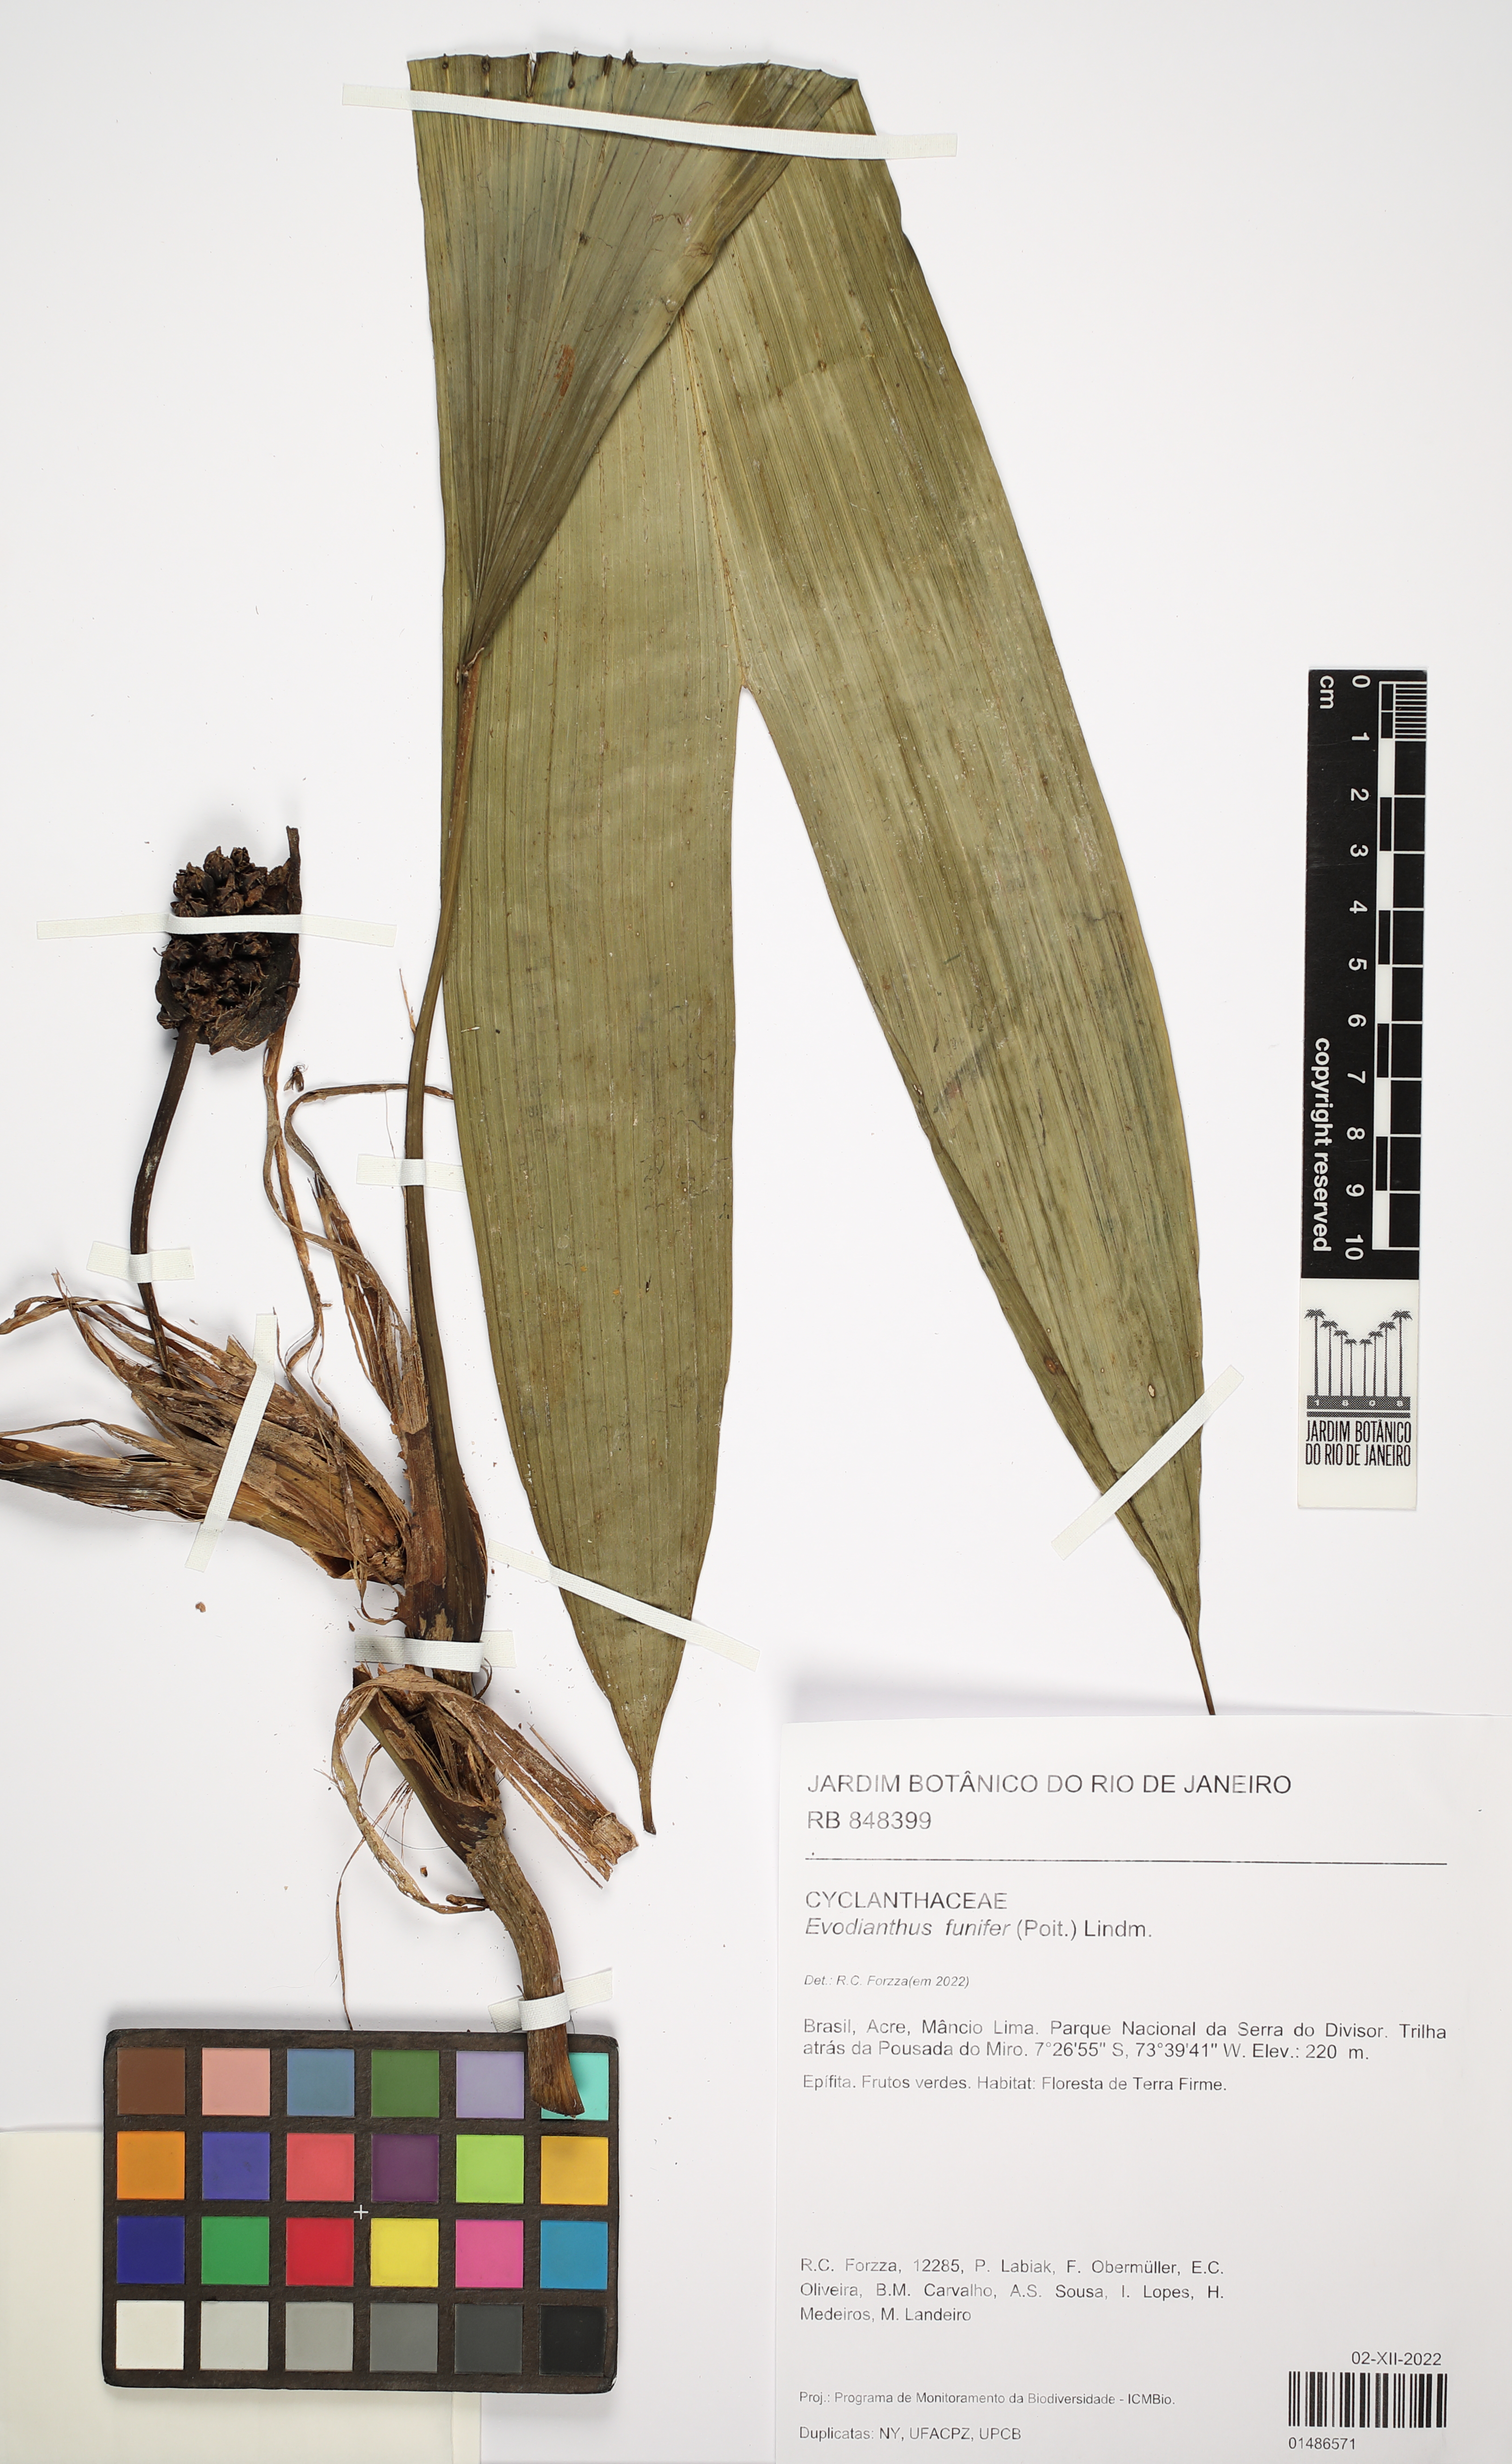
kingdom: Plantae
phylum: Tracheophyta
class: Liliopsida
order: Pandanales
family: Cyclanthaceae
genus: Evodianthus
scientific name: Evodianthus funifer
